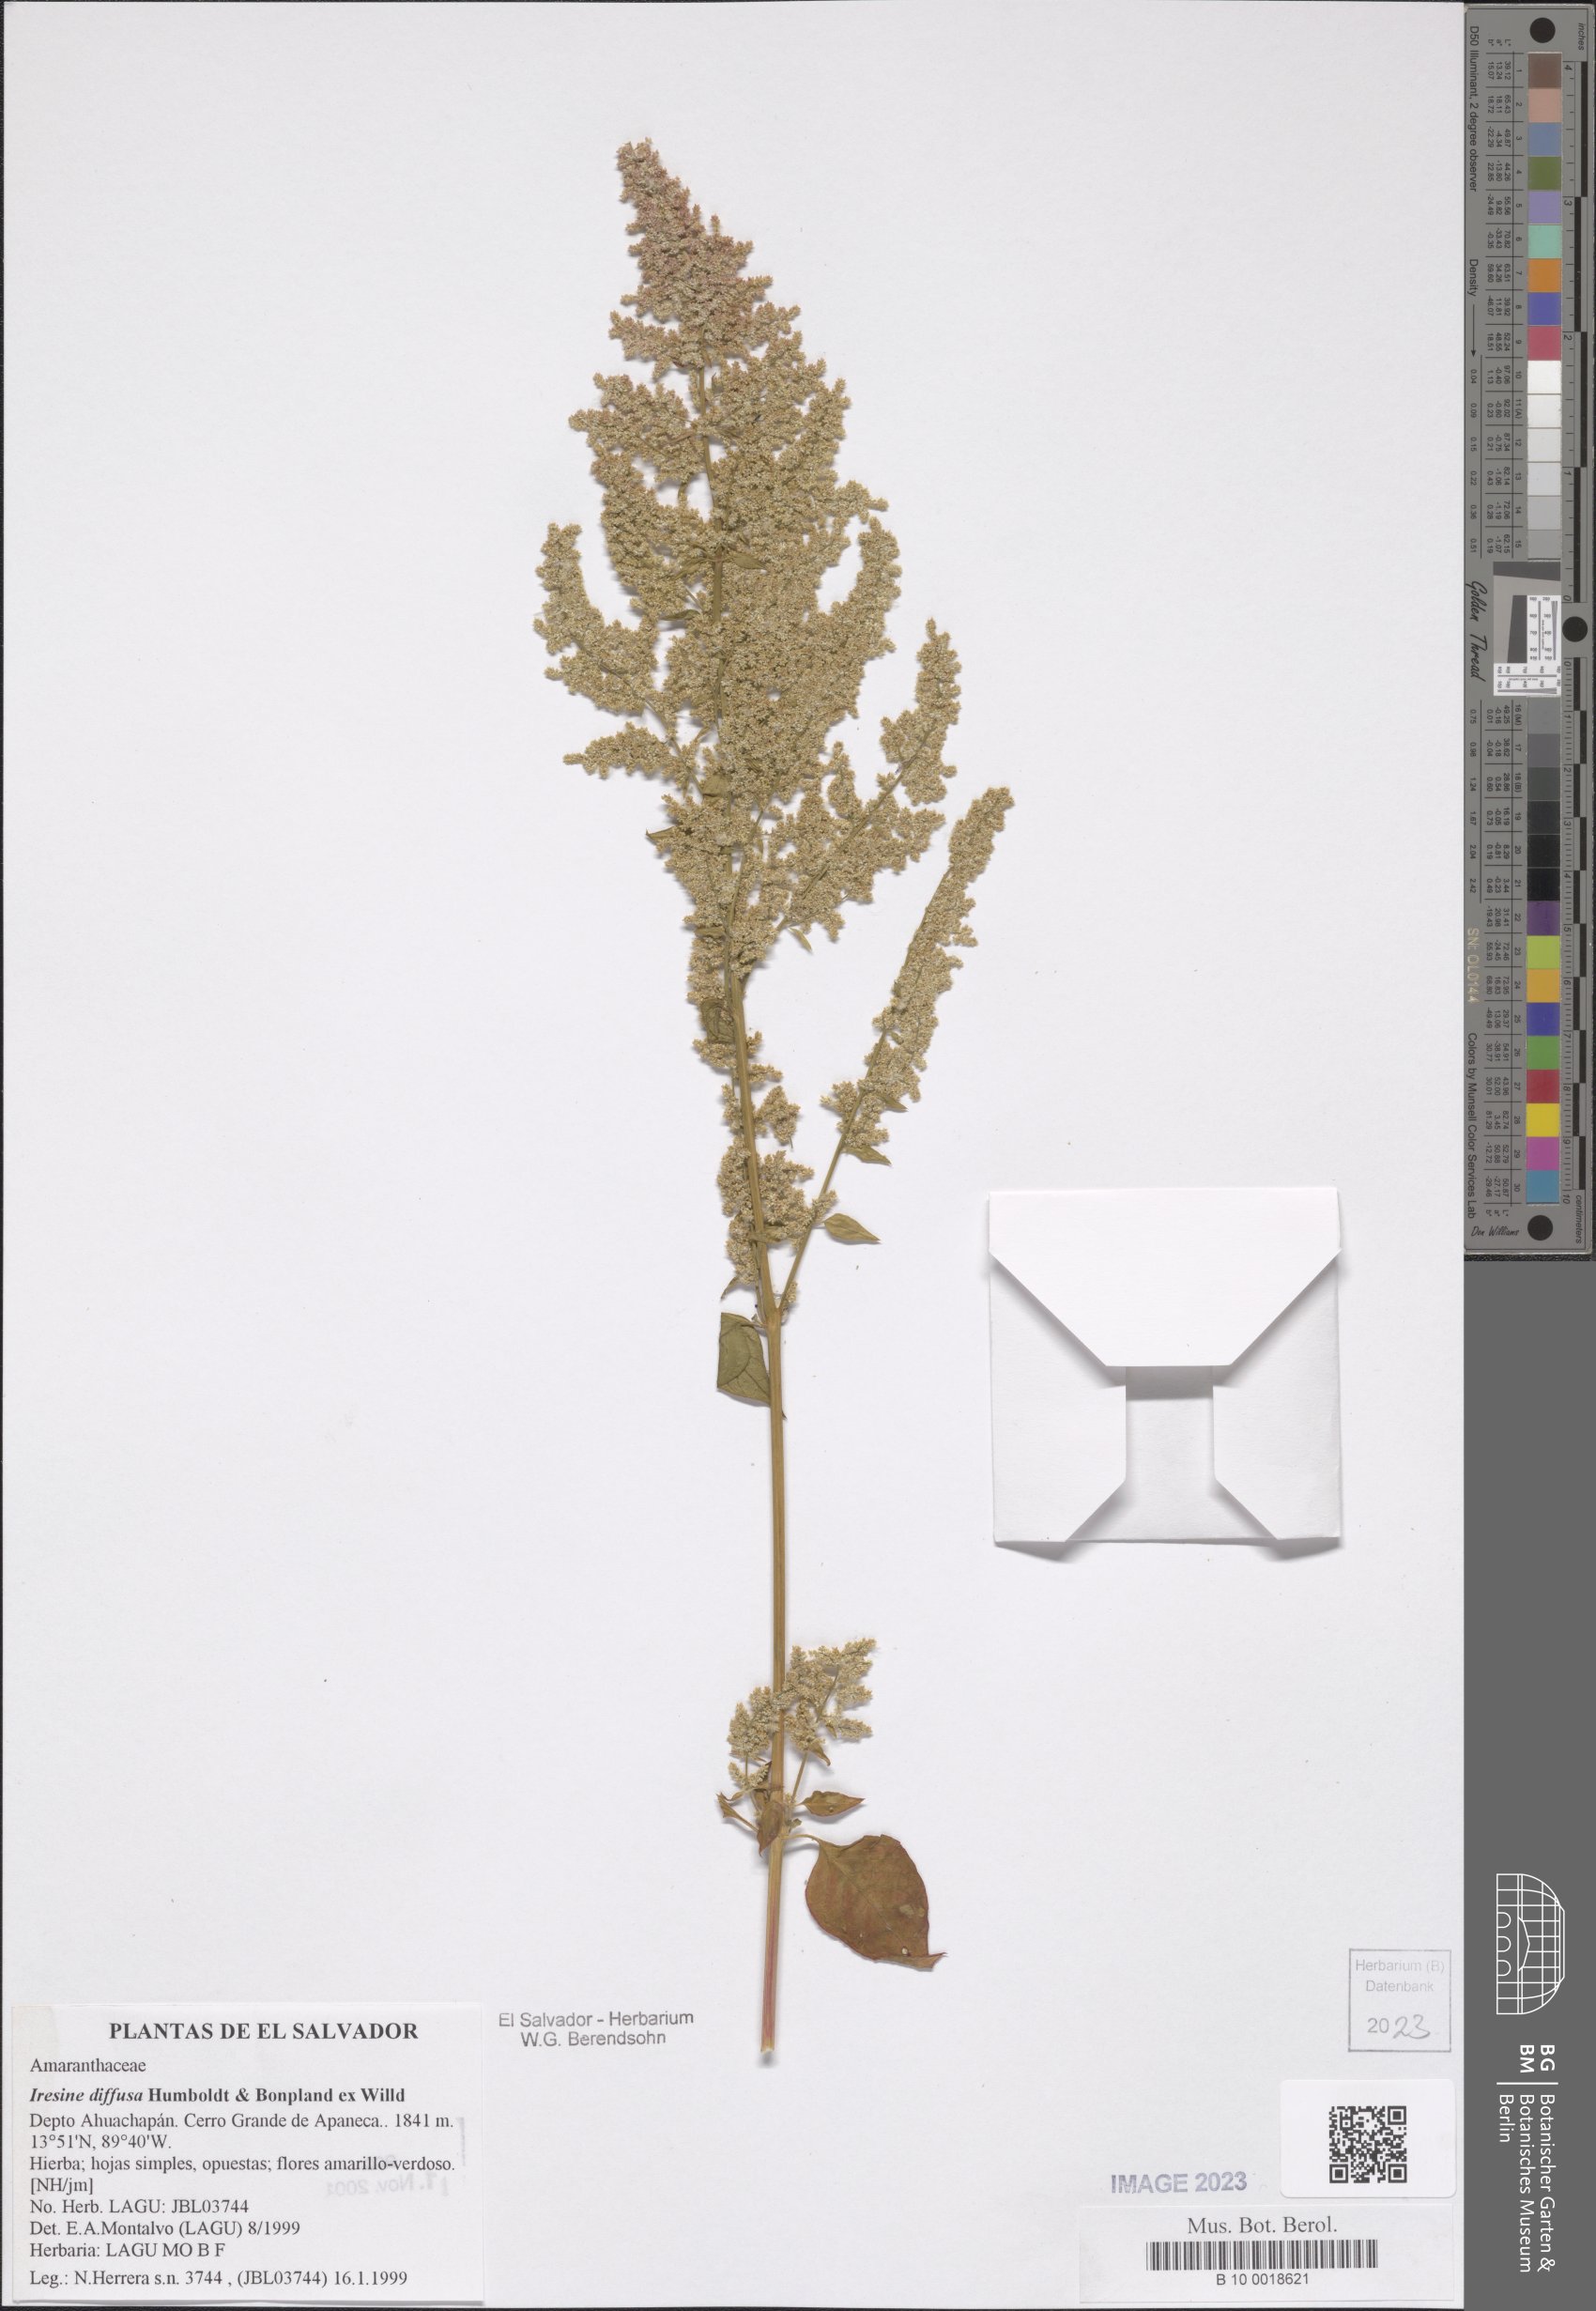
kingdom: Plantae
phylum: Tracheophyta
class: Magnoliopsida
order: Caryophyllales
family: Amaranthaceae
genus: Iresine
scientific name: Iresine diffusa
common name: Juba's-bush
